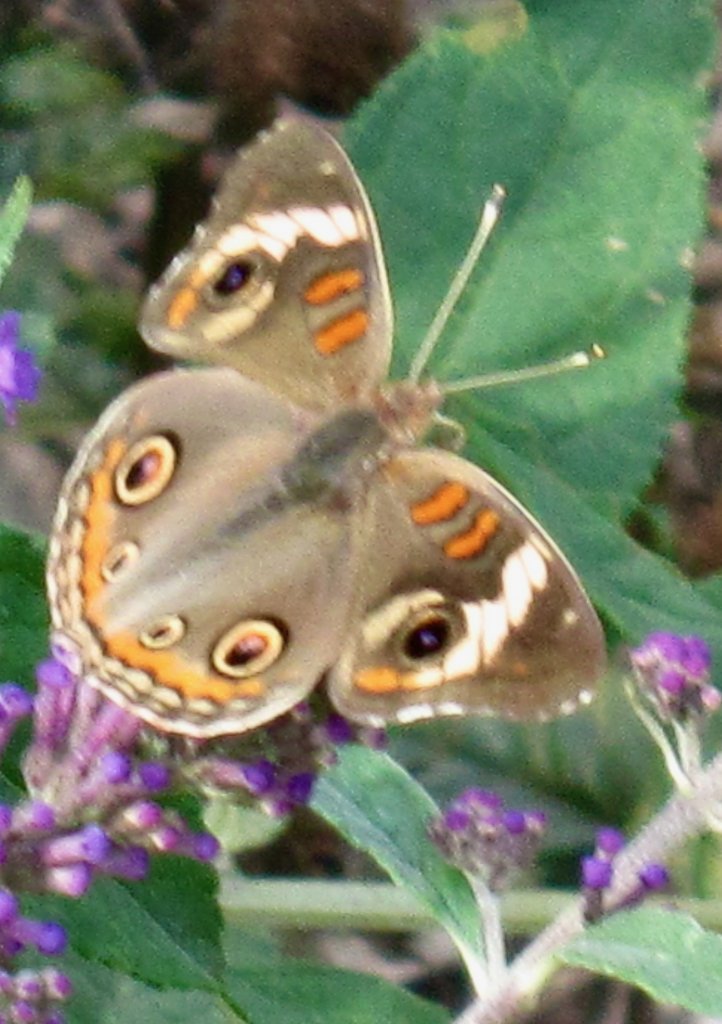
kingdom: Animalia
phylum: Arthropoda
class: Insecta
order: Lepidoptera
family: Nymphalidae
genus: Junonia
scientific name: Junonia coenia
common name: Common Buckeye
